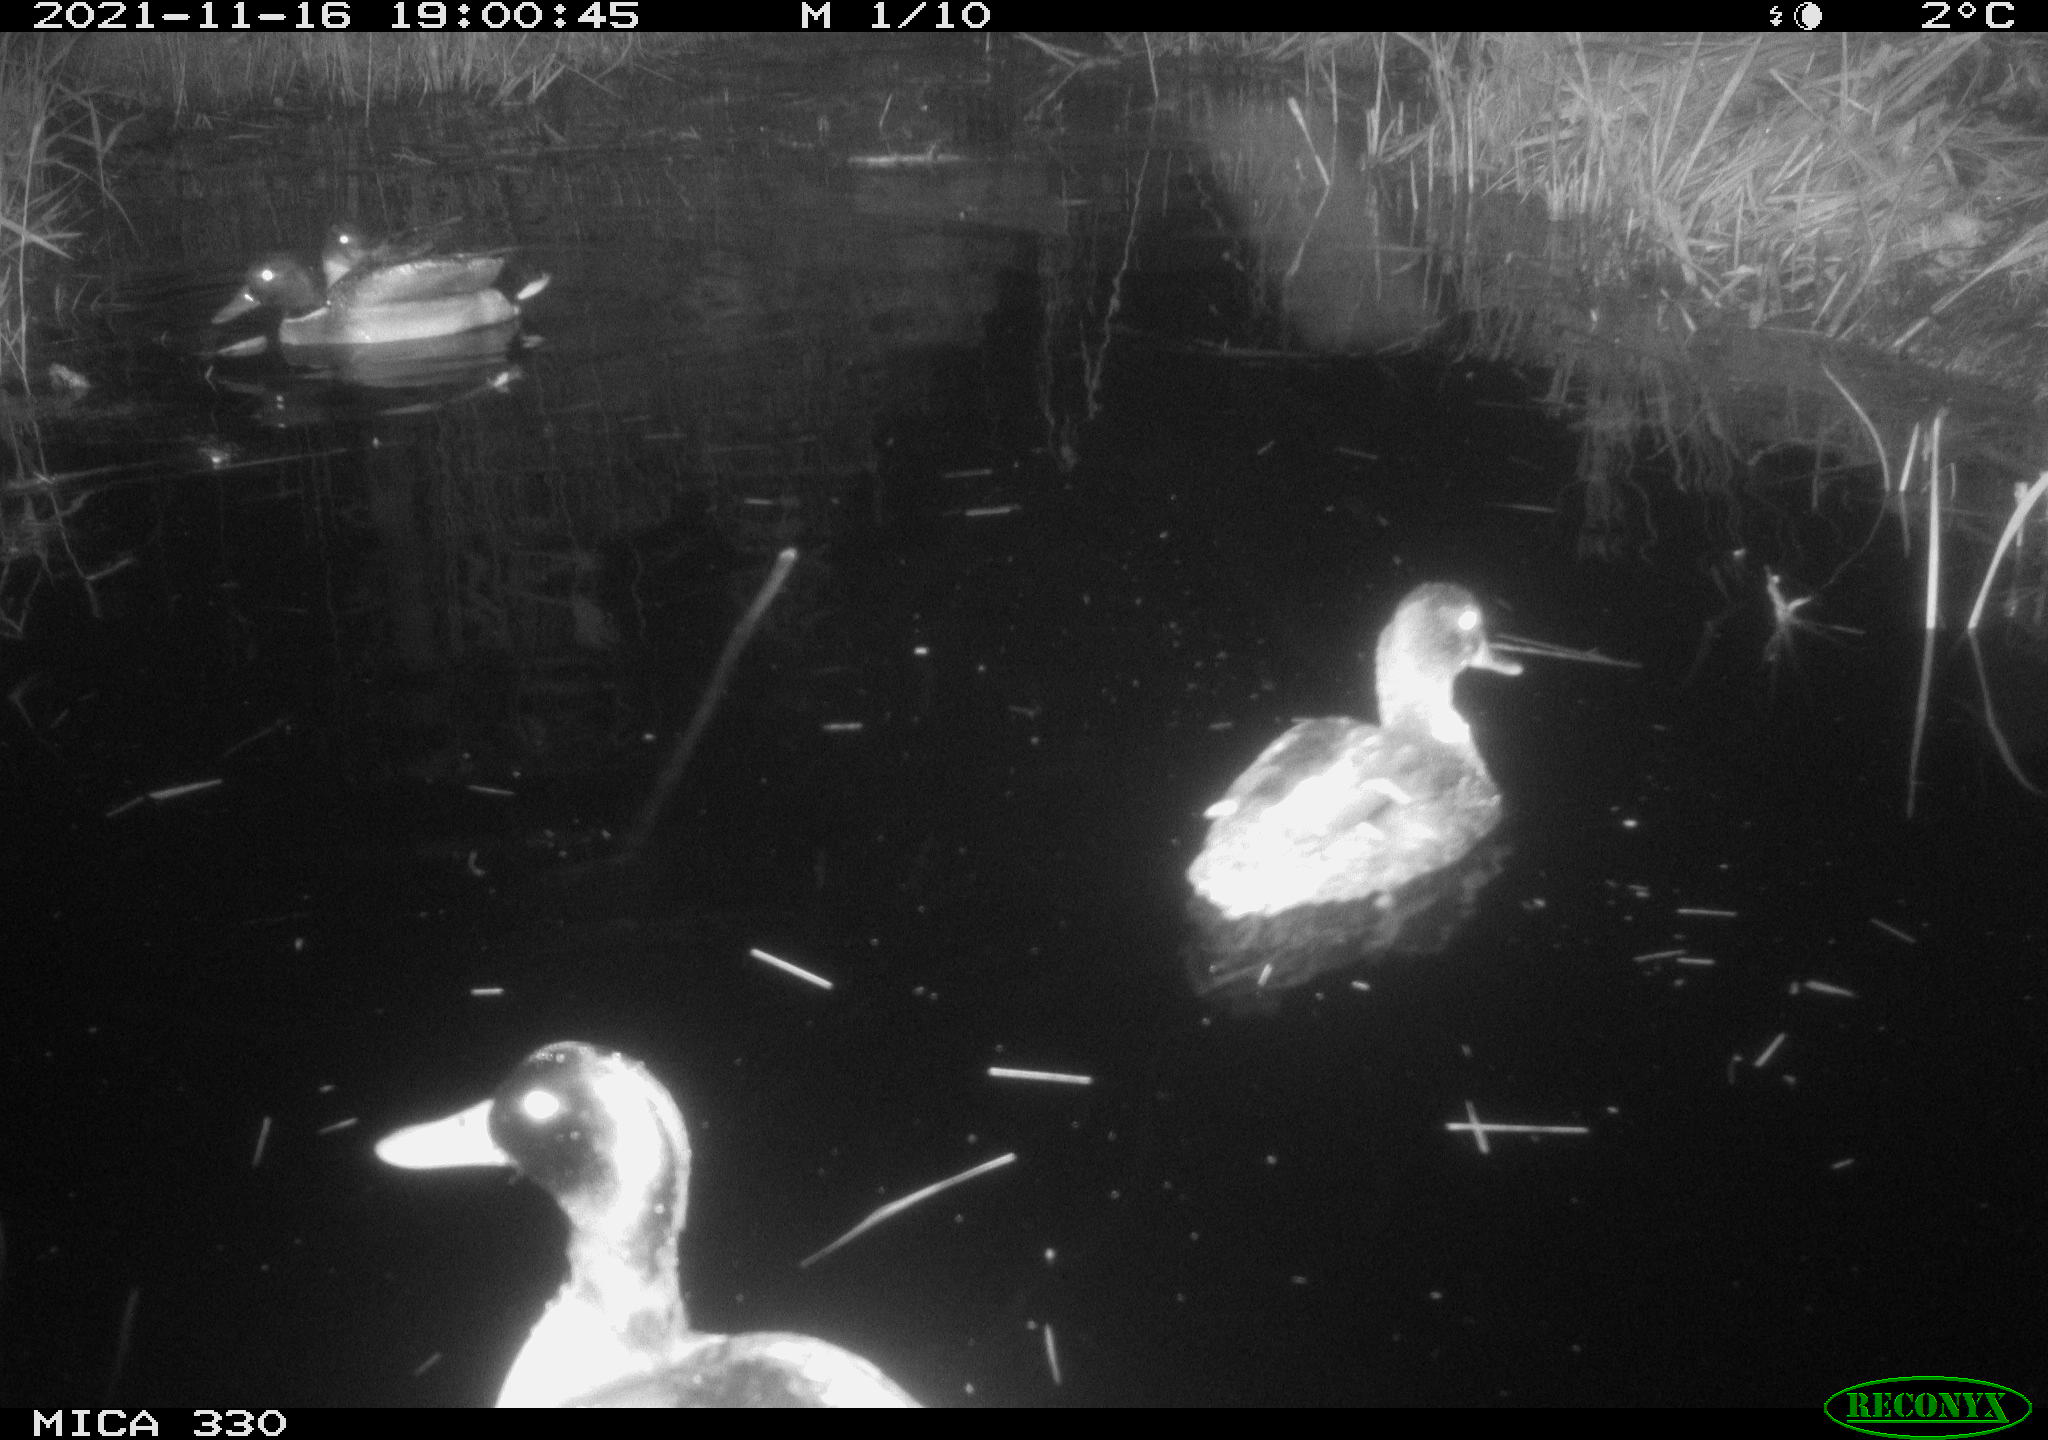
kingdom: Animalia
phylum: Chordata
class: Aves
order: Anseriformes
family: Anatidae
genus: Anas
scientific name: Anas platyrhynchos
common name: Mallard
